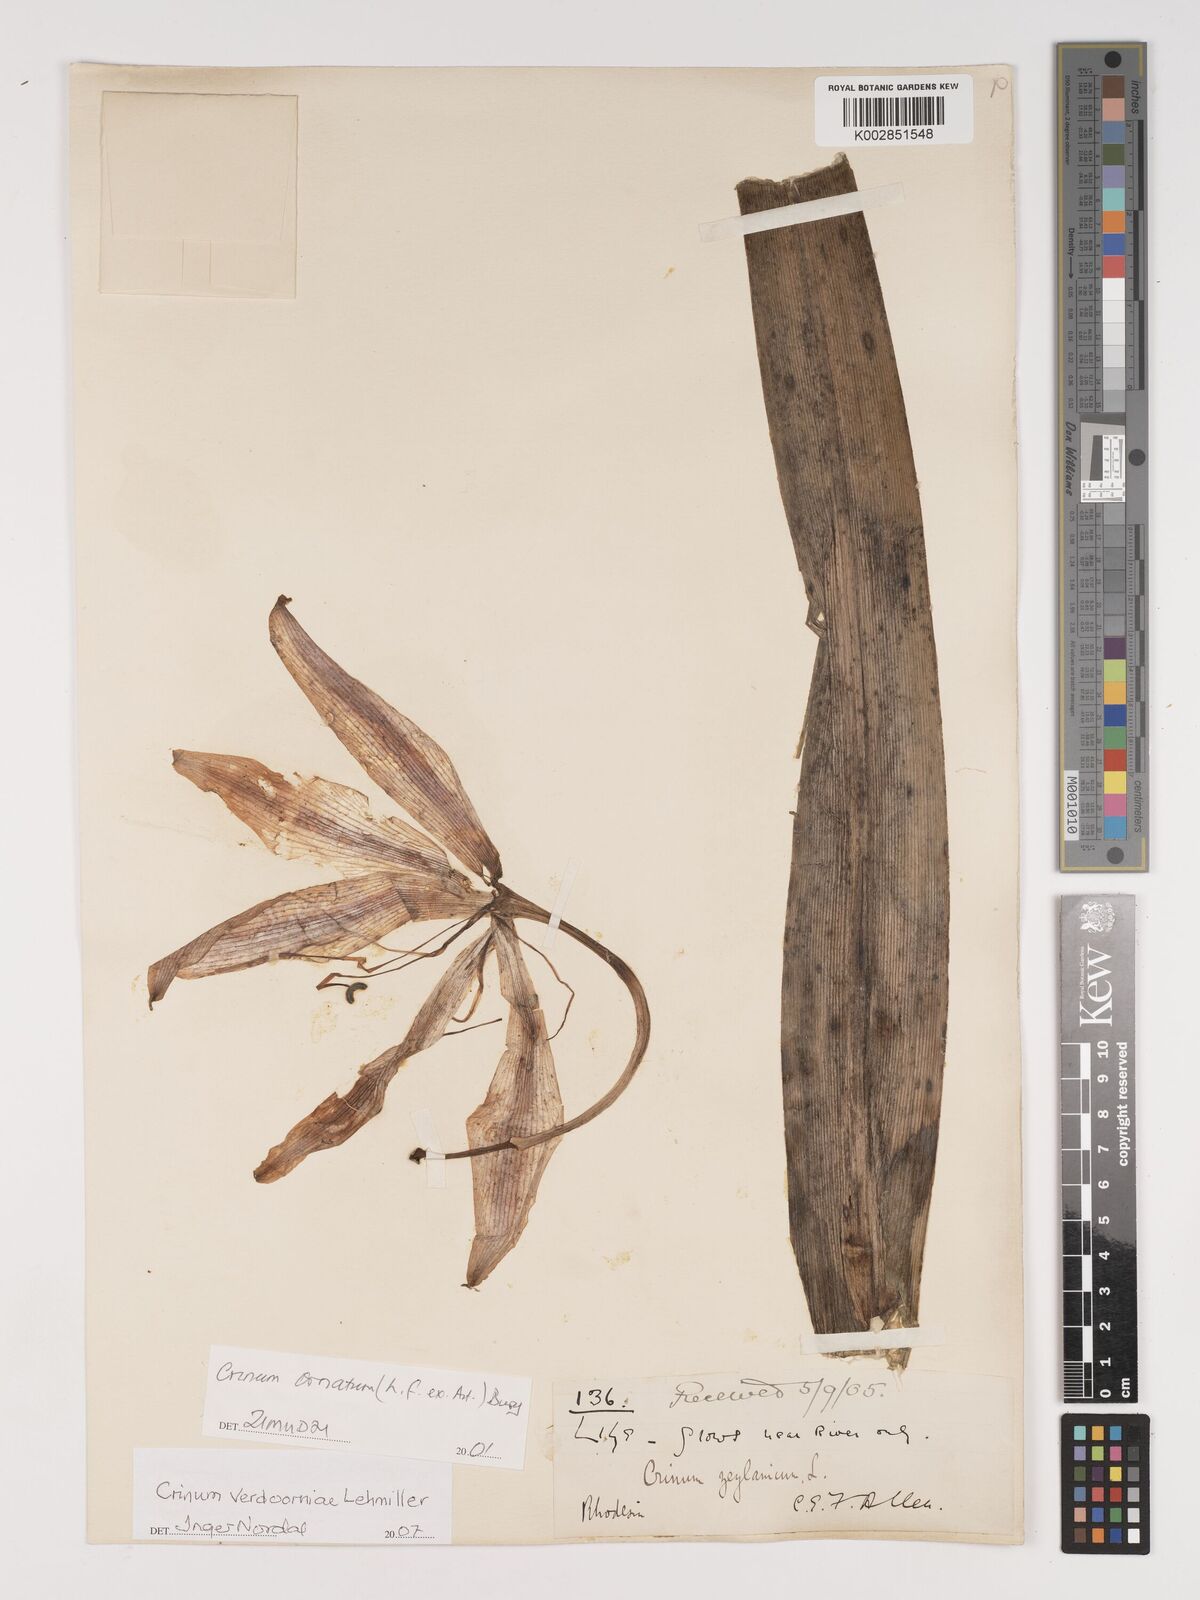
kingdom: Plantae
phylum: Tracheophyta
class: Liliopsida
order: Asparagales
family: Amaryllidaceae
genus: Crinum
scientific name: Crinum verdoorniae
